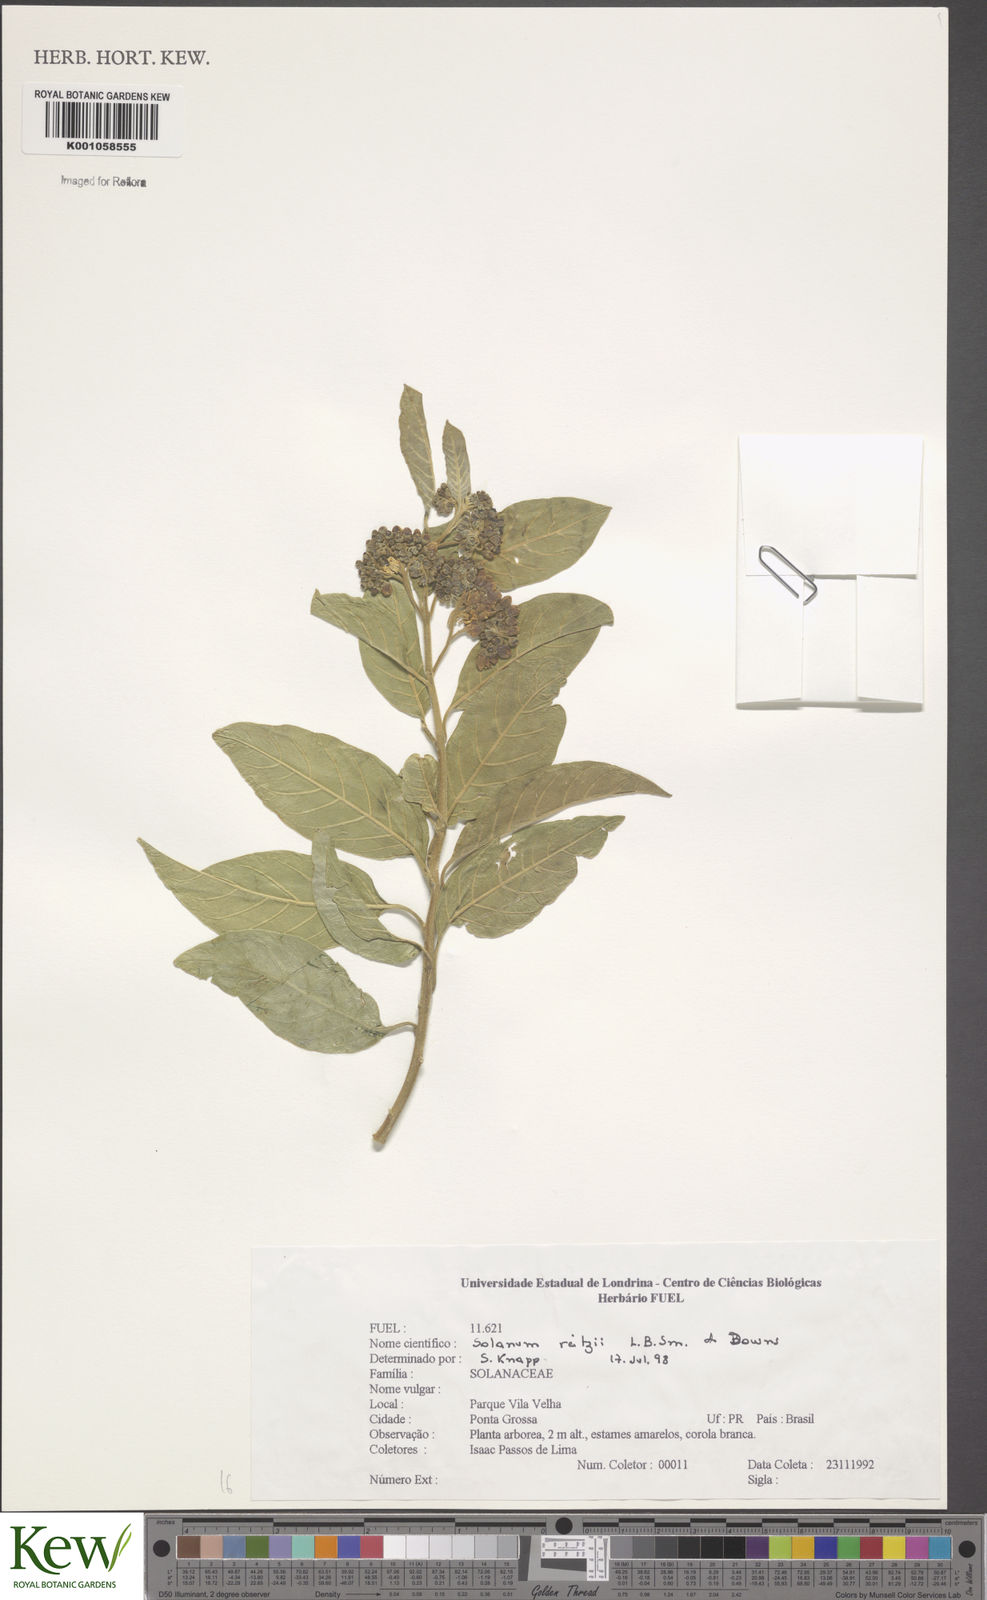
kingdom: Plantae
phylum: Tracheophyta
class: Magnoliopsida
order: Solanales
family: Solanaceae
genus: Solanum
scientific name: Solanum reitzii
